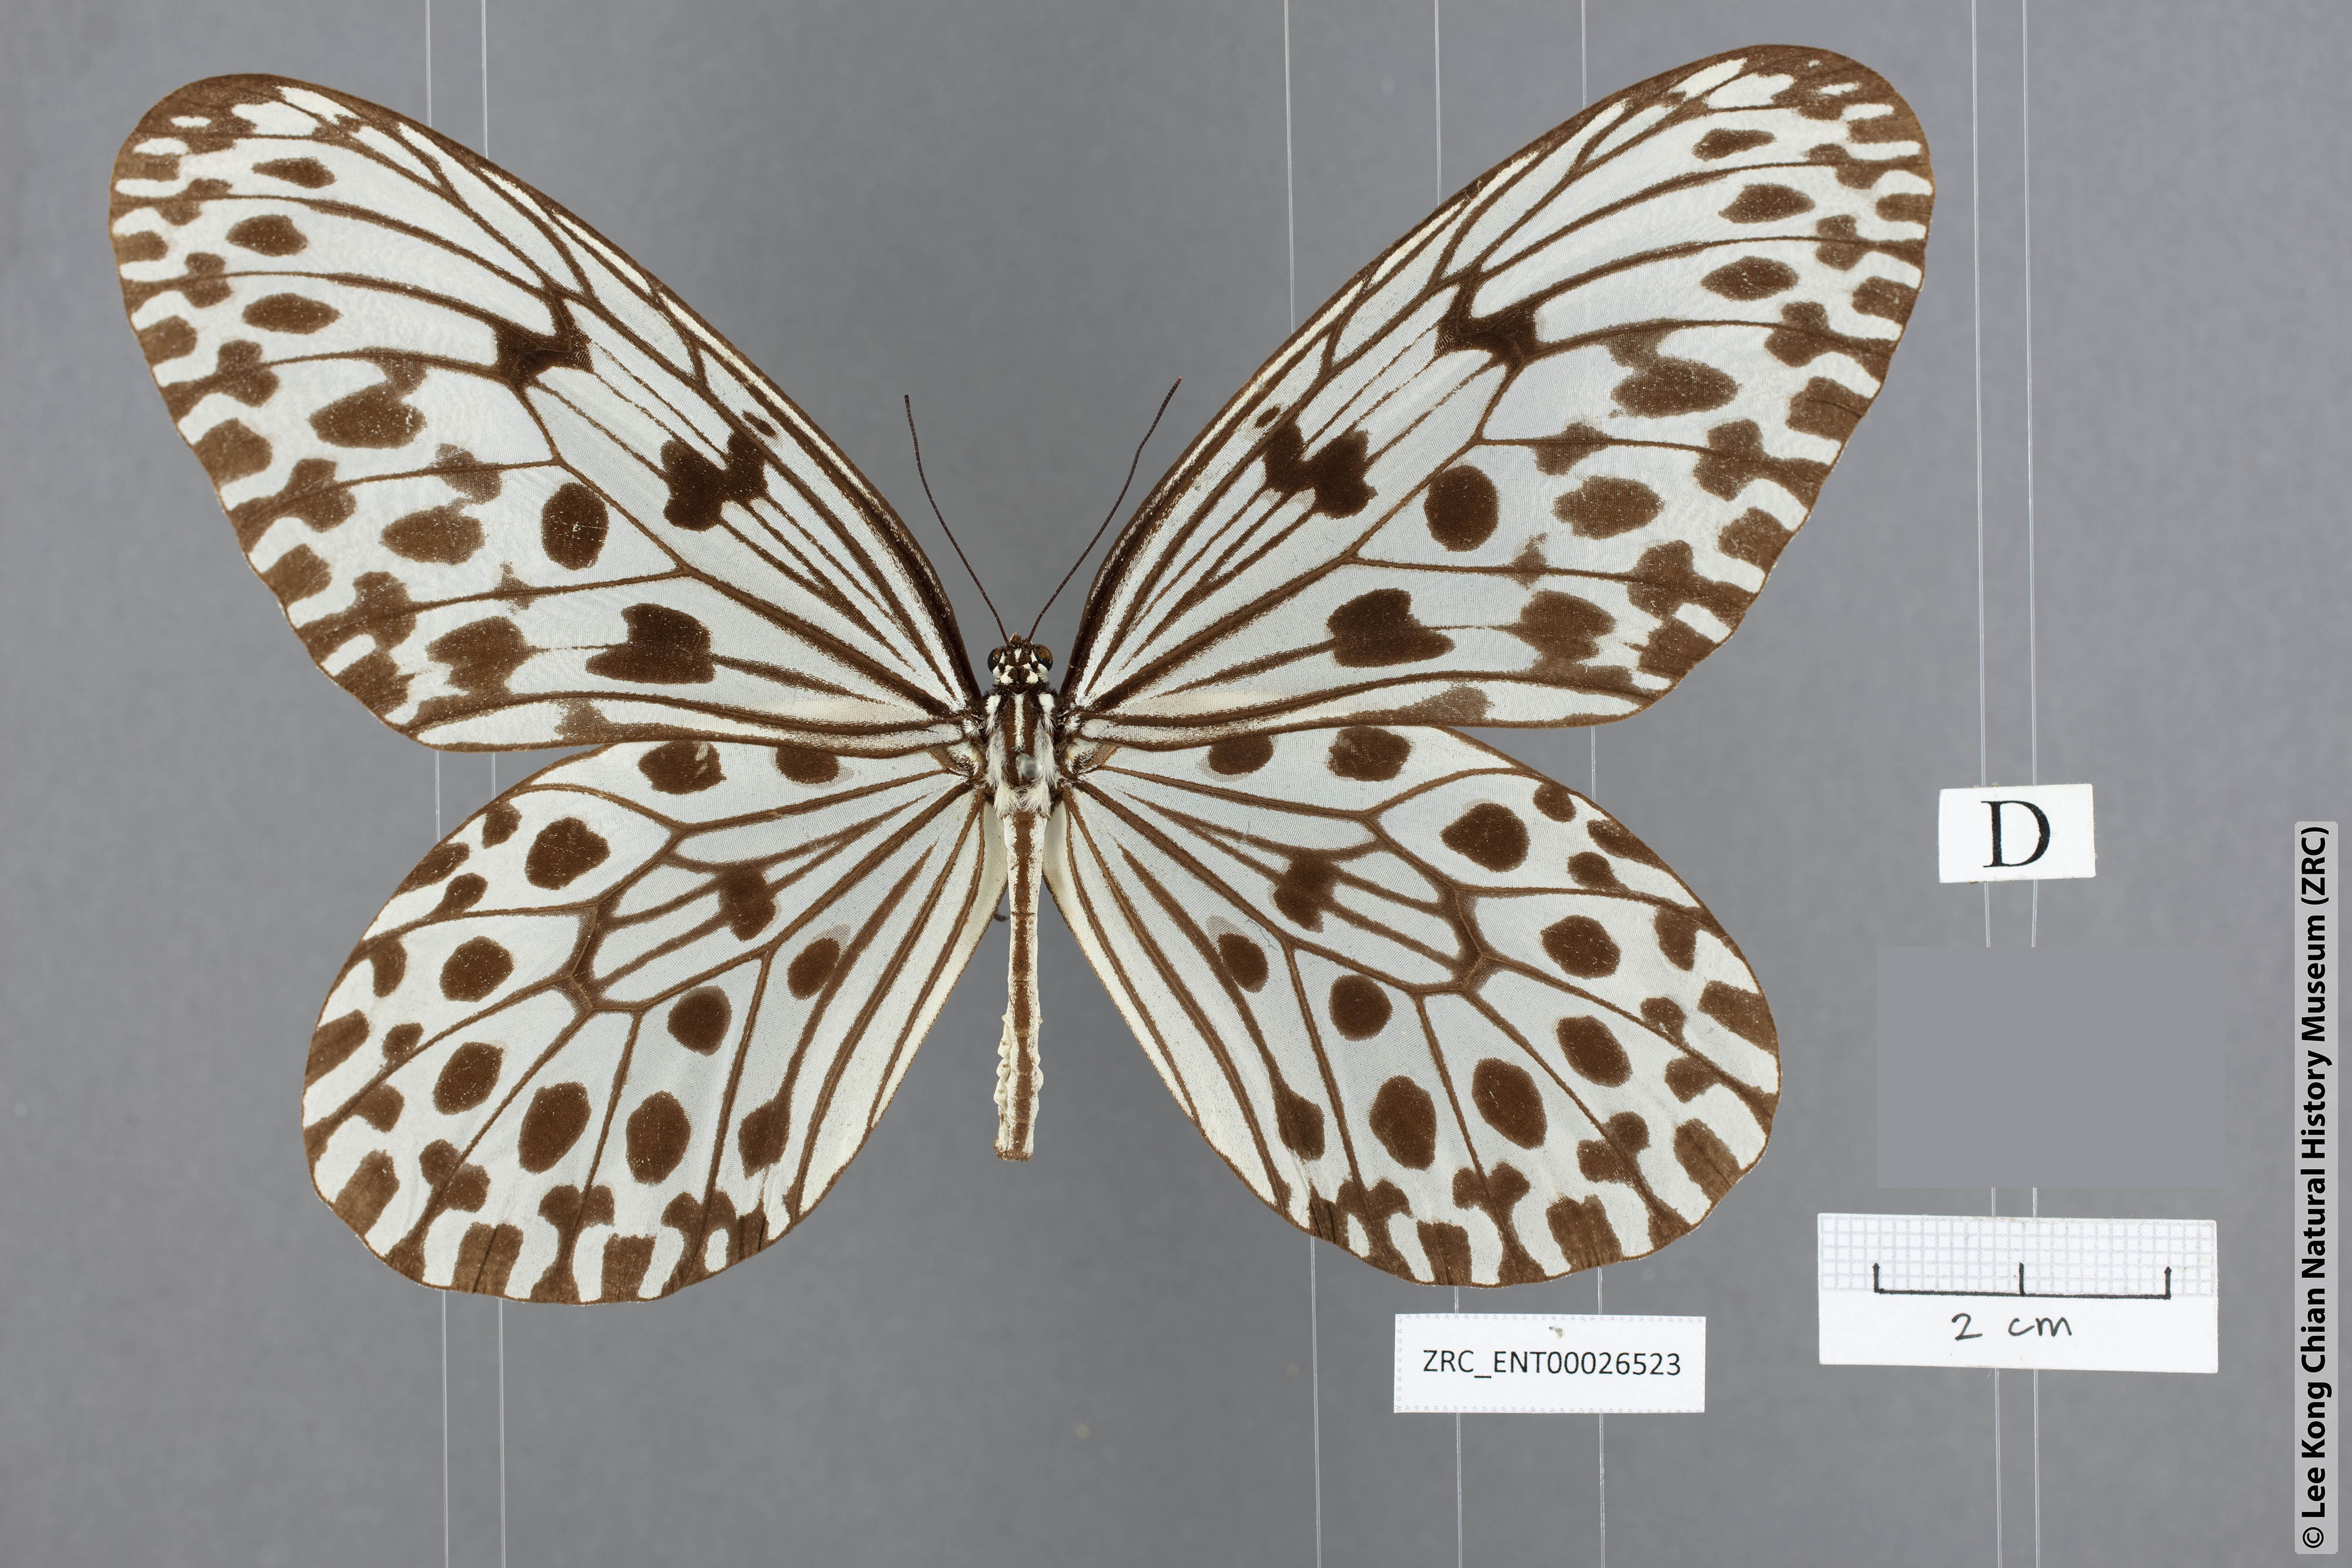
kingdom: Animalia
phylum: Arthropoda
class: Insecta
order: Lepidoptera
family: Nymphalidae
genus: Idea
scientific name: Idea hypermnestra
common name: Malayan tree nymph
